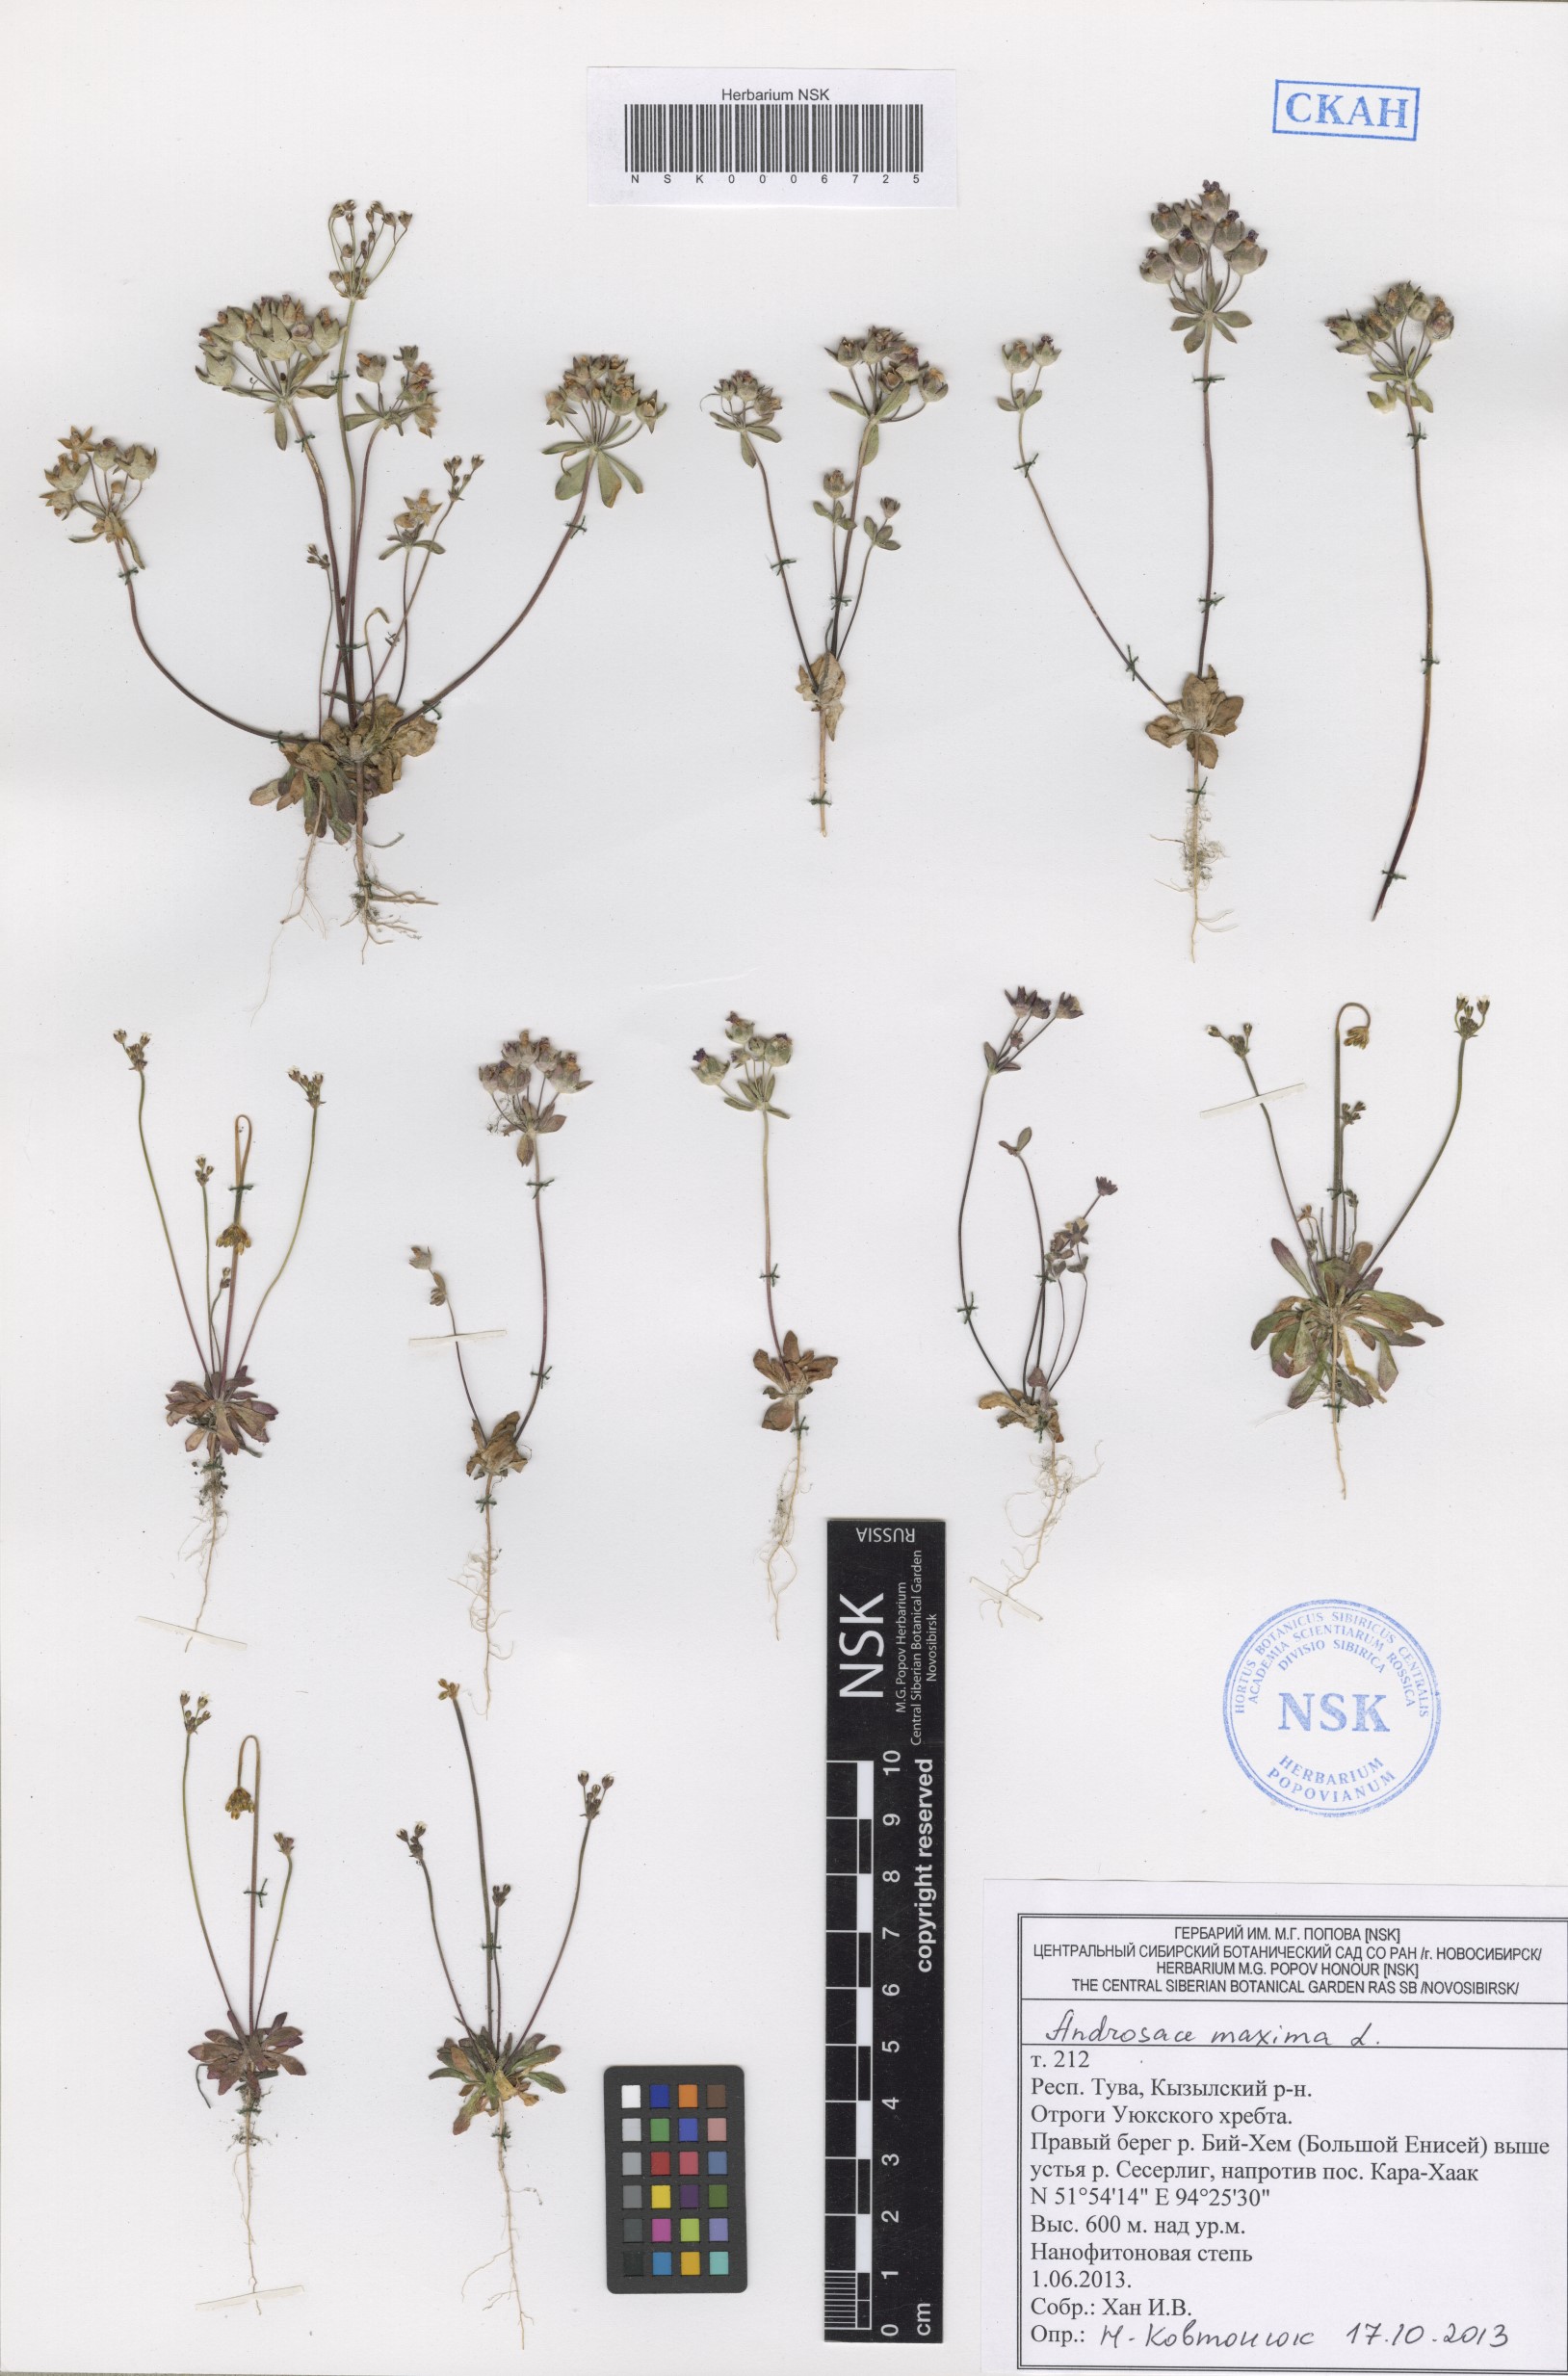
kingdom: Plantae
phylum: Tracheophyta
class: Magnoliopsida
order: Ericales
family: Primulaceae
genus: Androsace
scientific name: Androsace maxima
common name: Annual androsace
